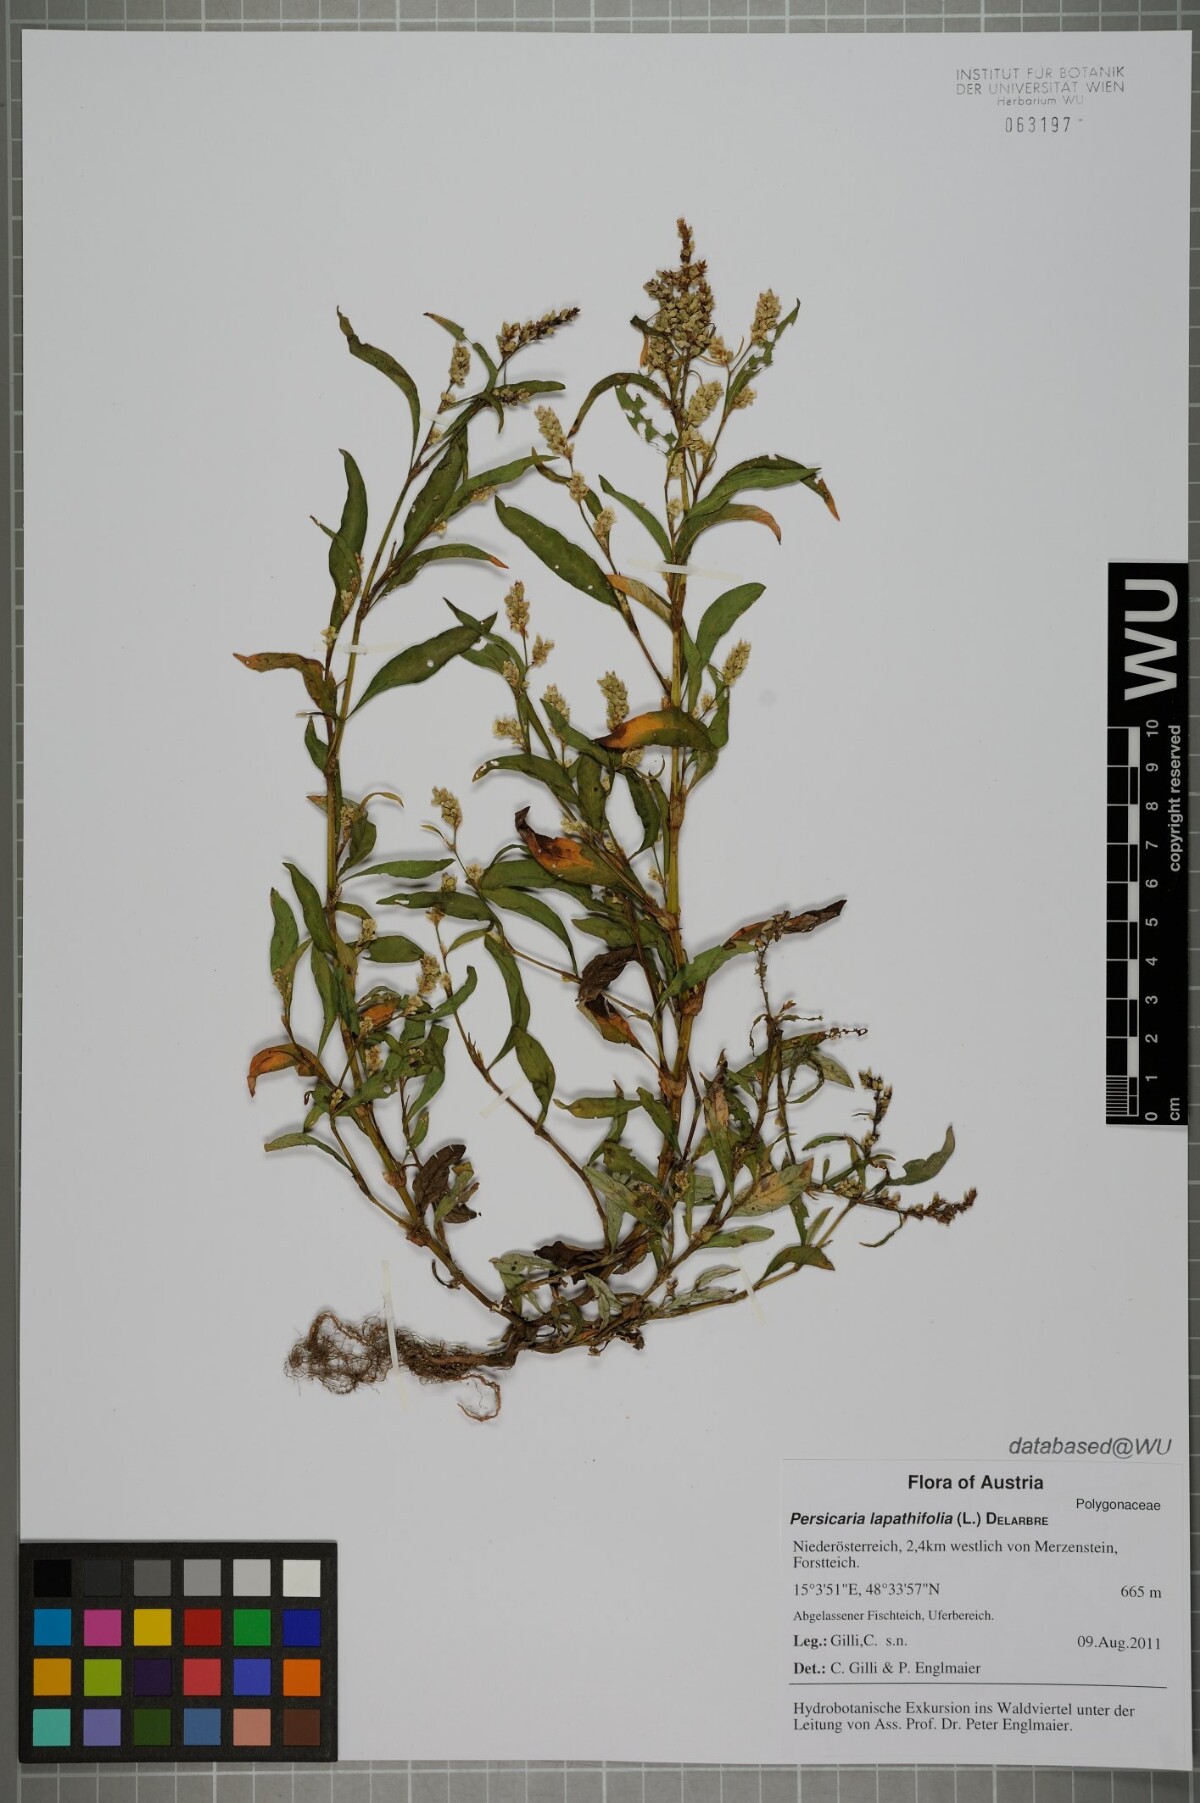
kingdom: Plantae
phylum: Tracheophyta
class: Magnoliopsida
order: Caryophyllales
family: Polygonaceae
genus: Persicaria
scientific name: Persicaria lapathifolia
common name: Curlytop knotweed
